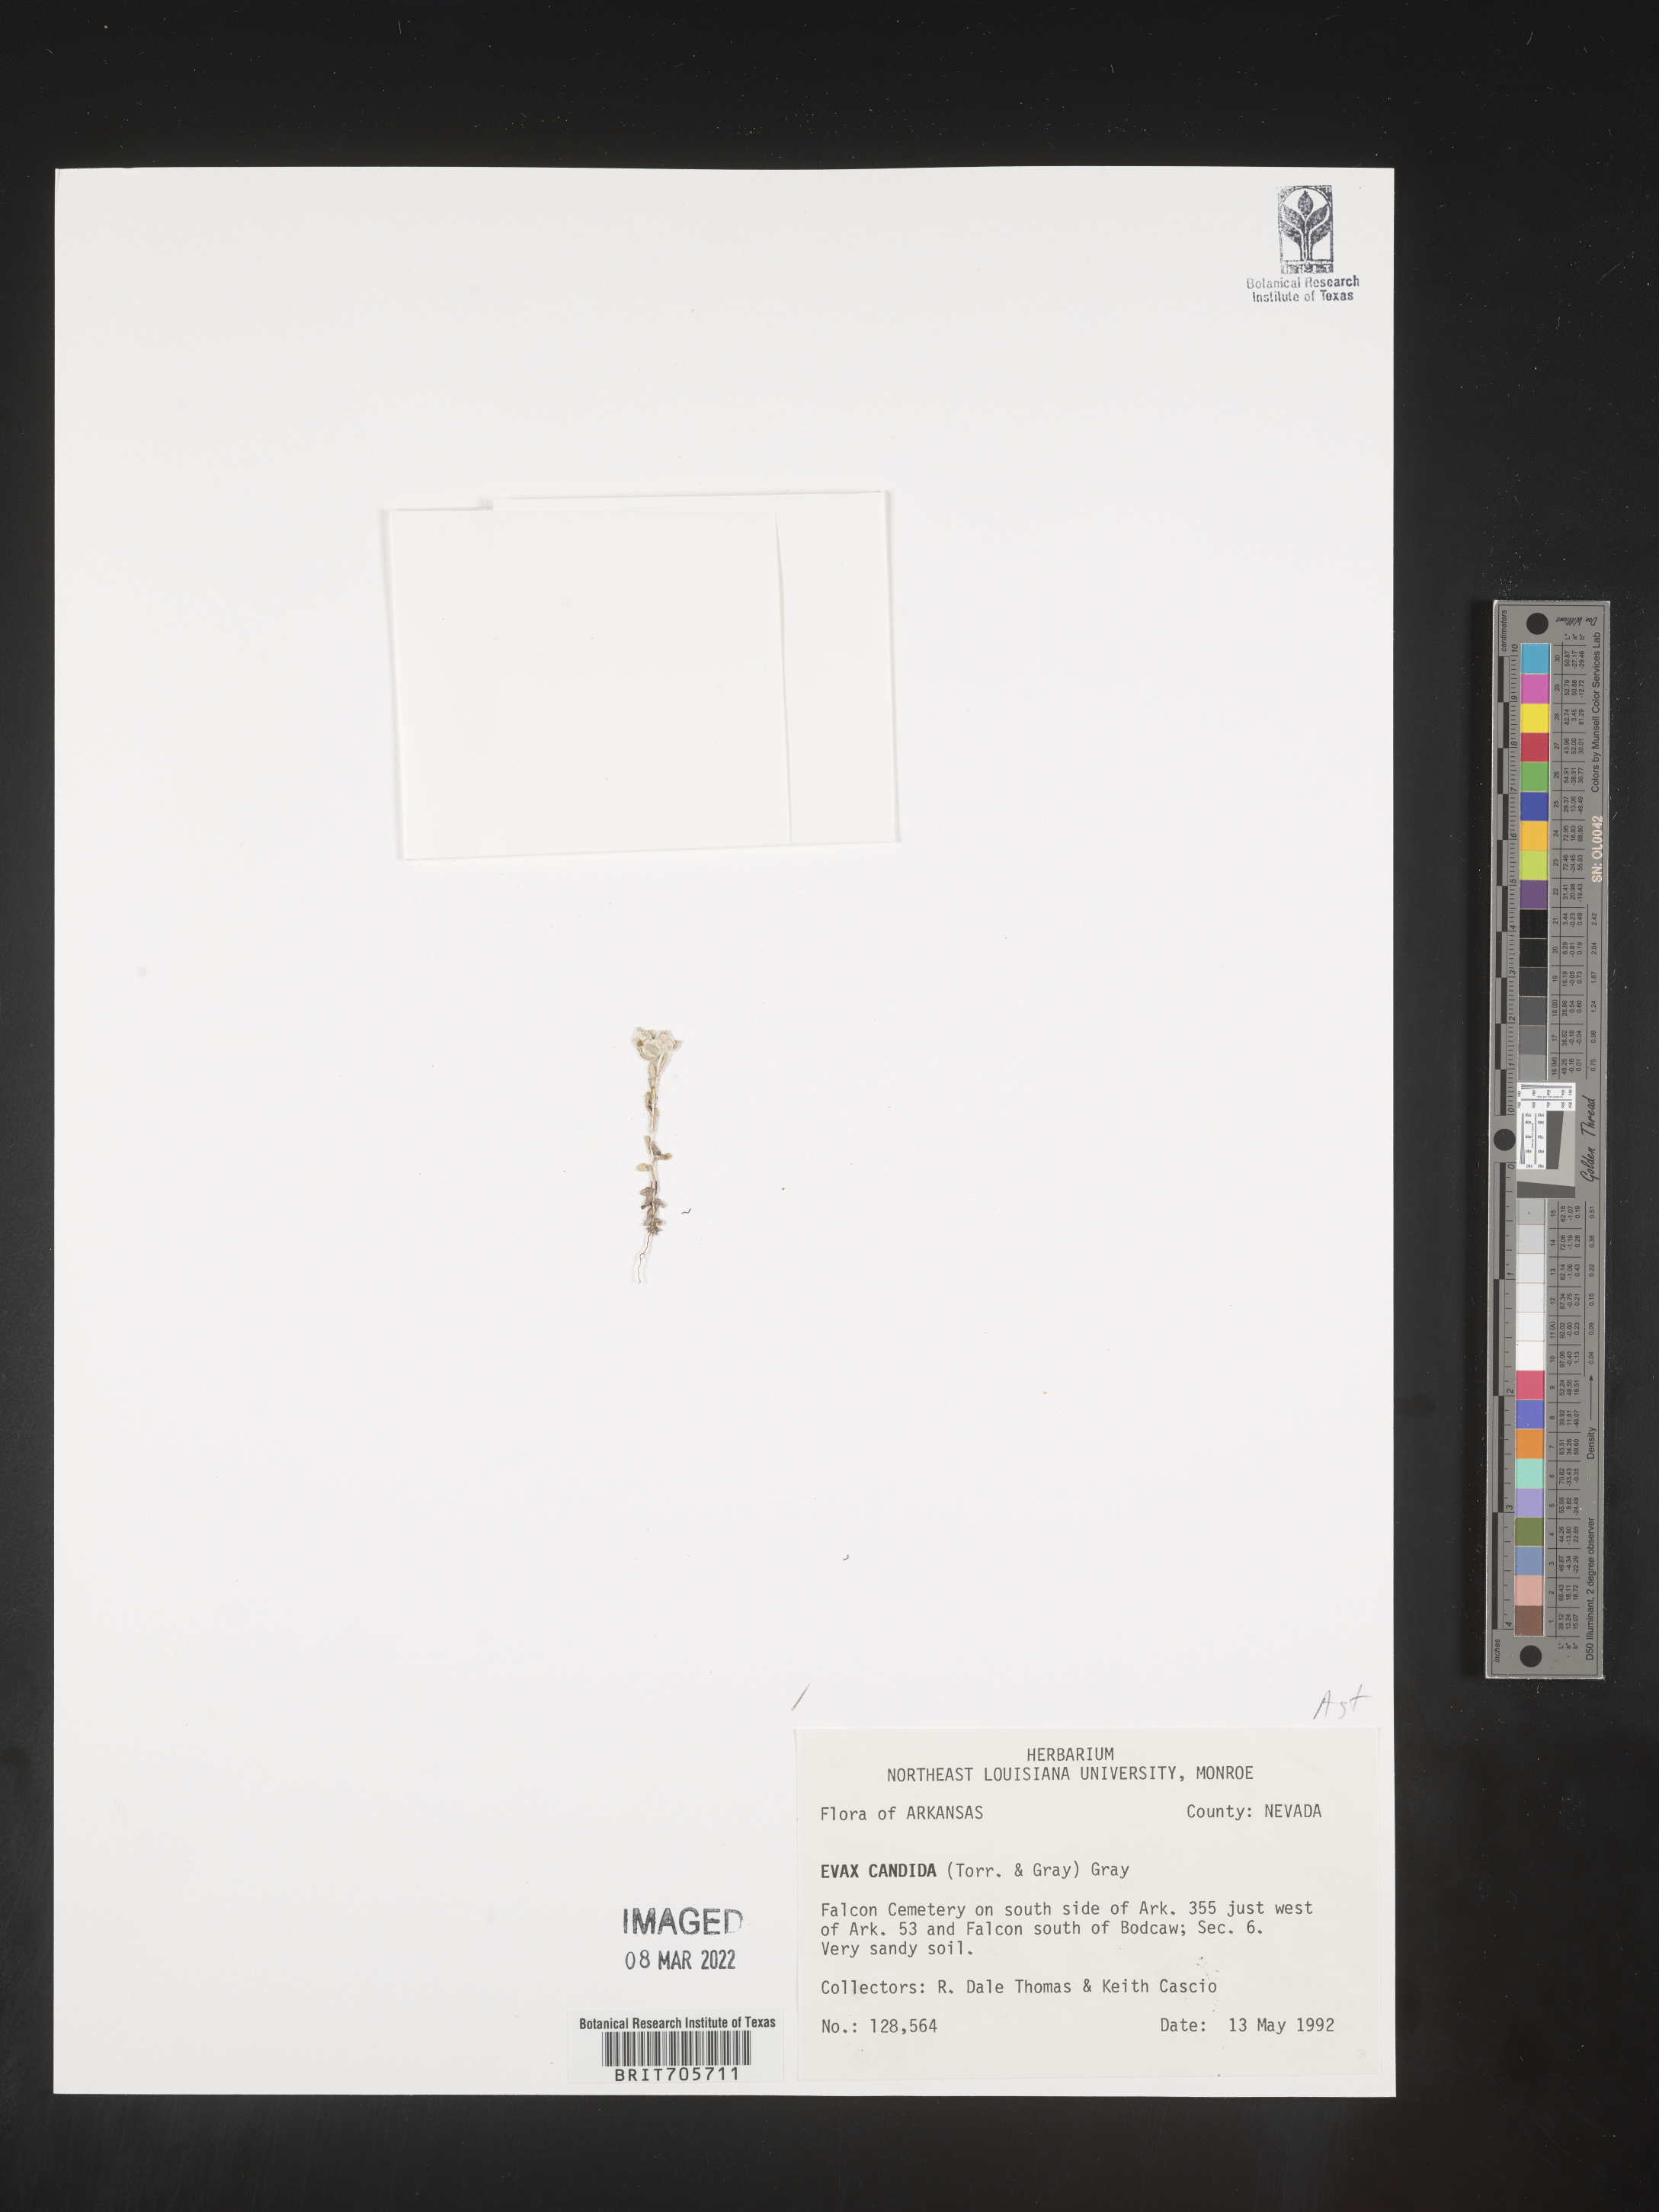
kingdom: Plantae
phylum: Tracheophyta
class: Magnoliopsida
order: Asterales
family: Asteraceae
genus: Diaperia
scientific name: Diaperia candida
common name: Silver rabbit-tobacco
